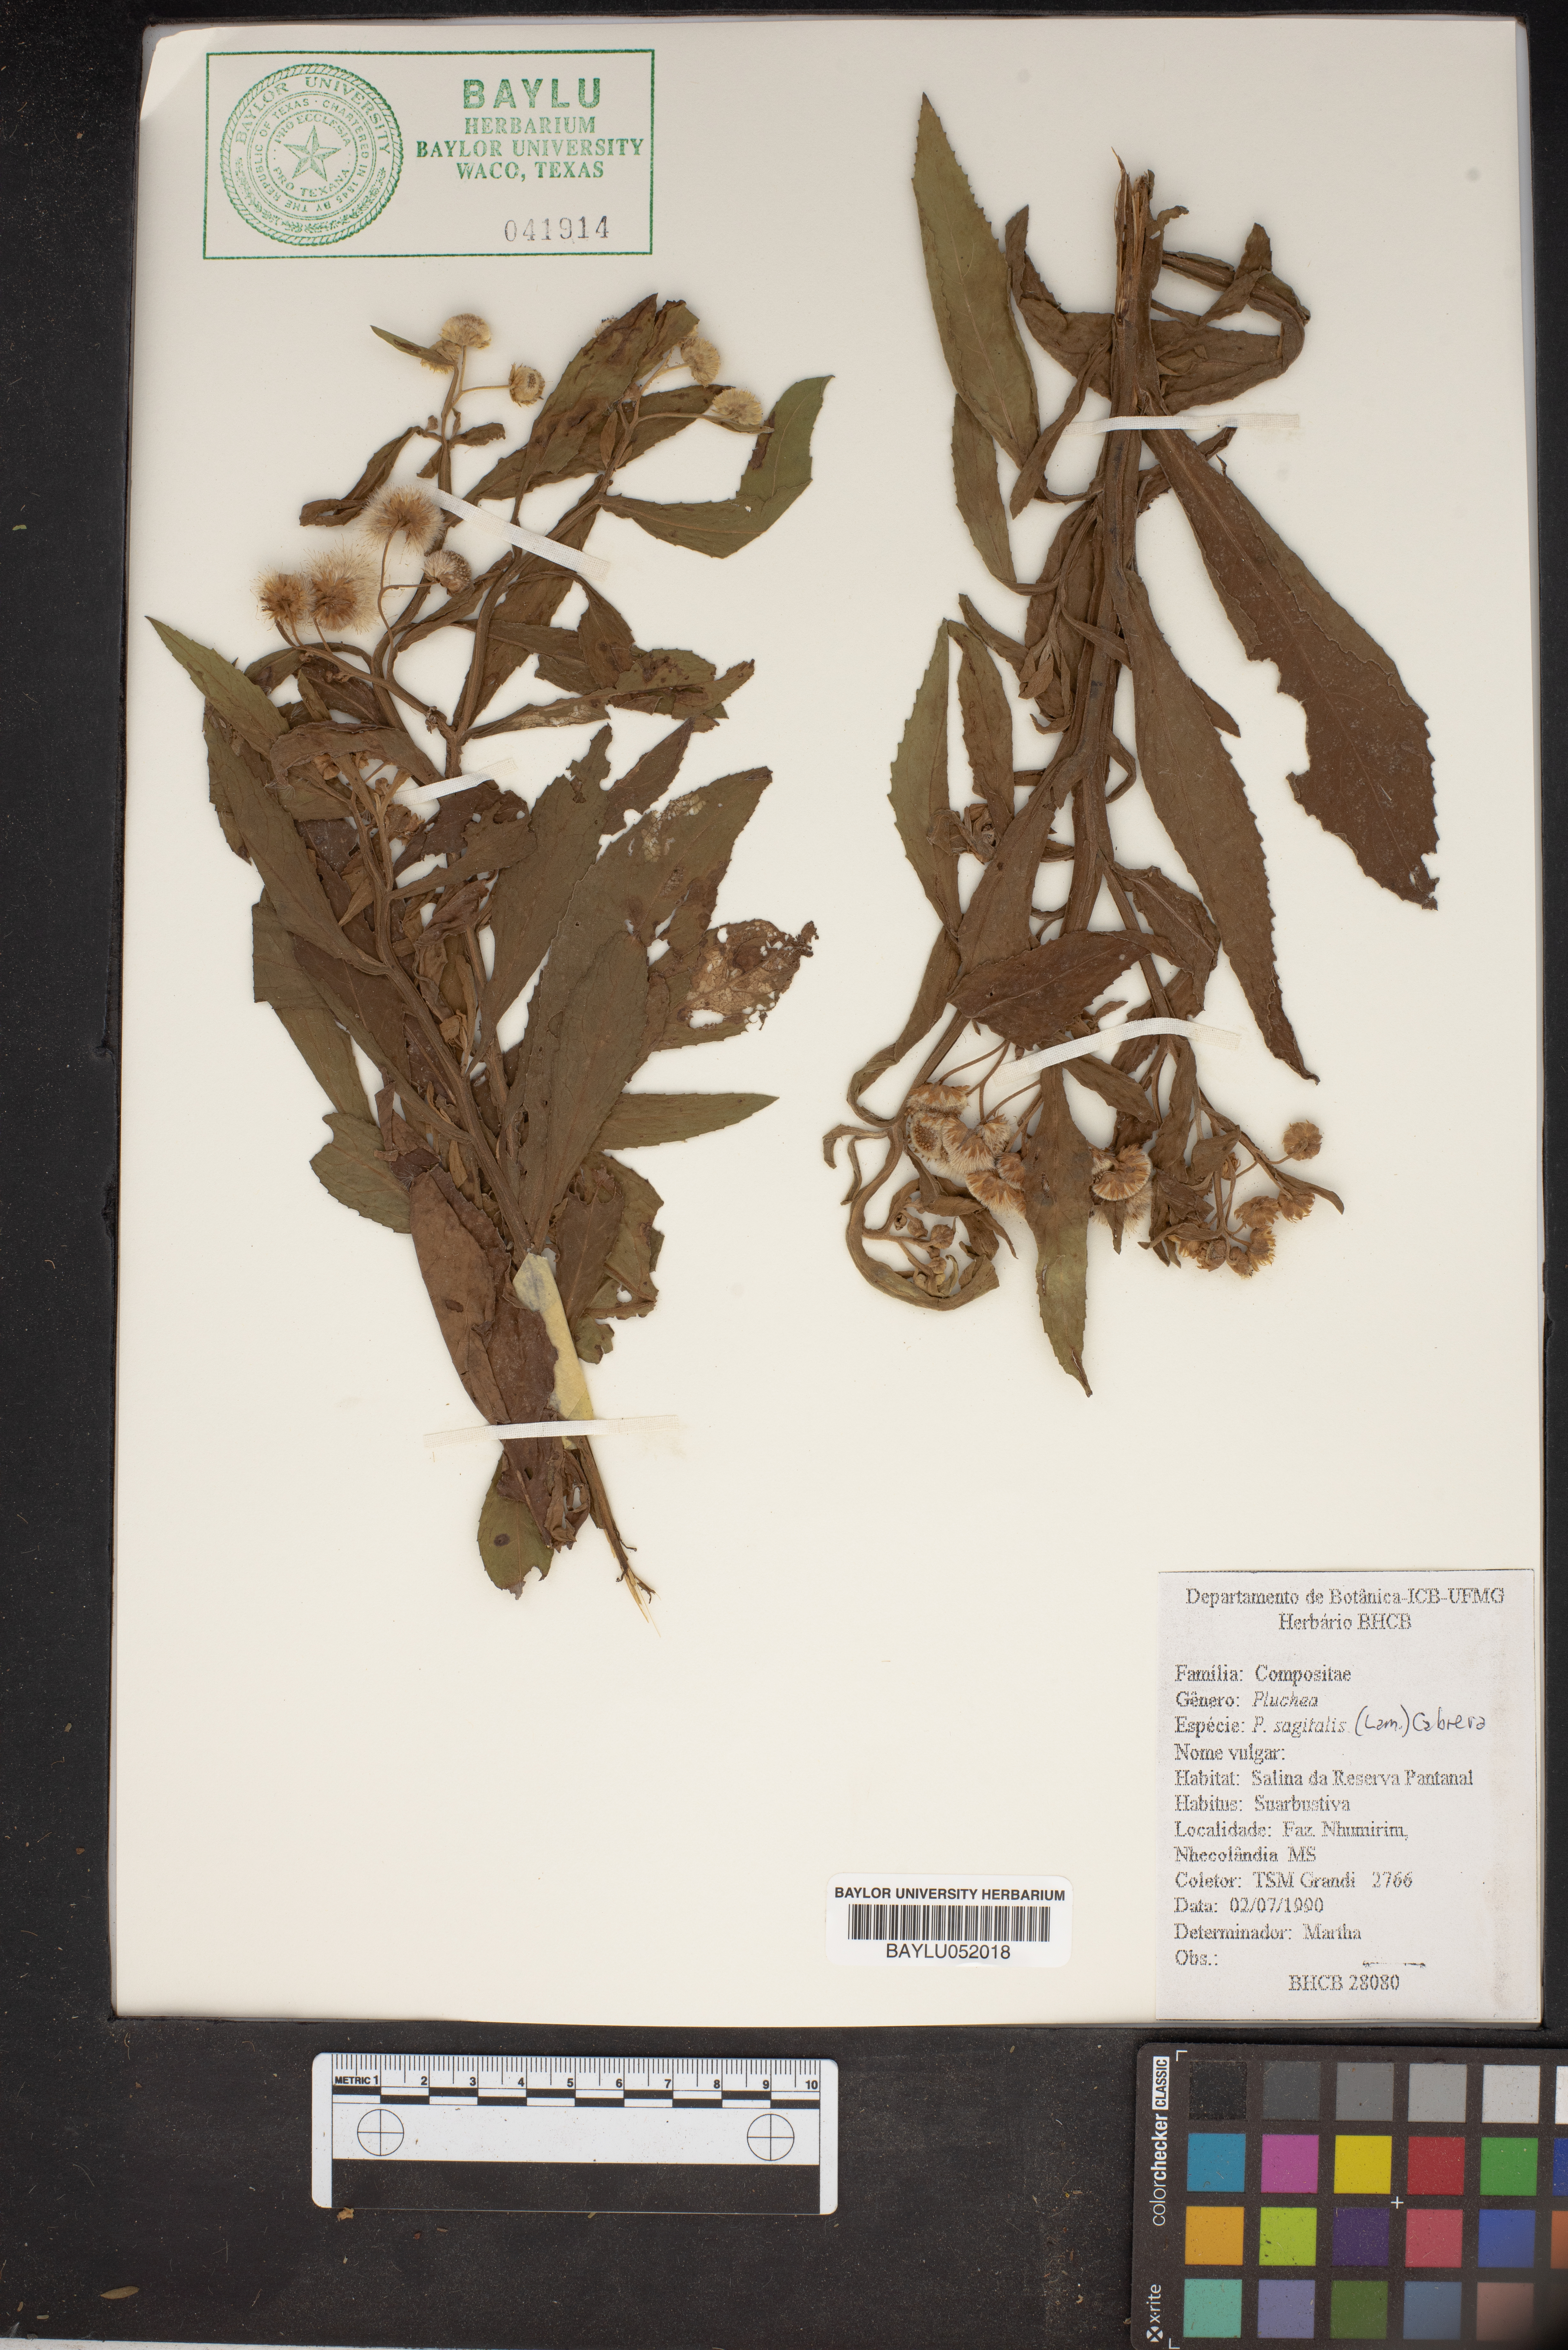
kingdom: Plantae
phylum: Tracheophyta
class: Magnoliopsida
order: Asterales
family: Asteraceae
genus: Pluchea
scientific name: Pluchea sagittalis
